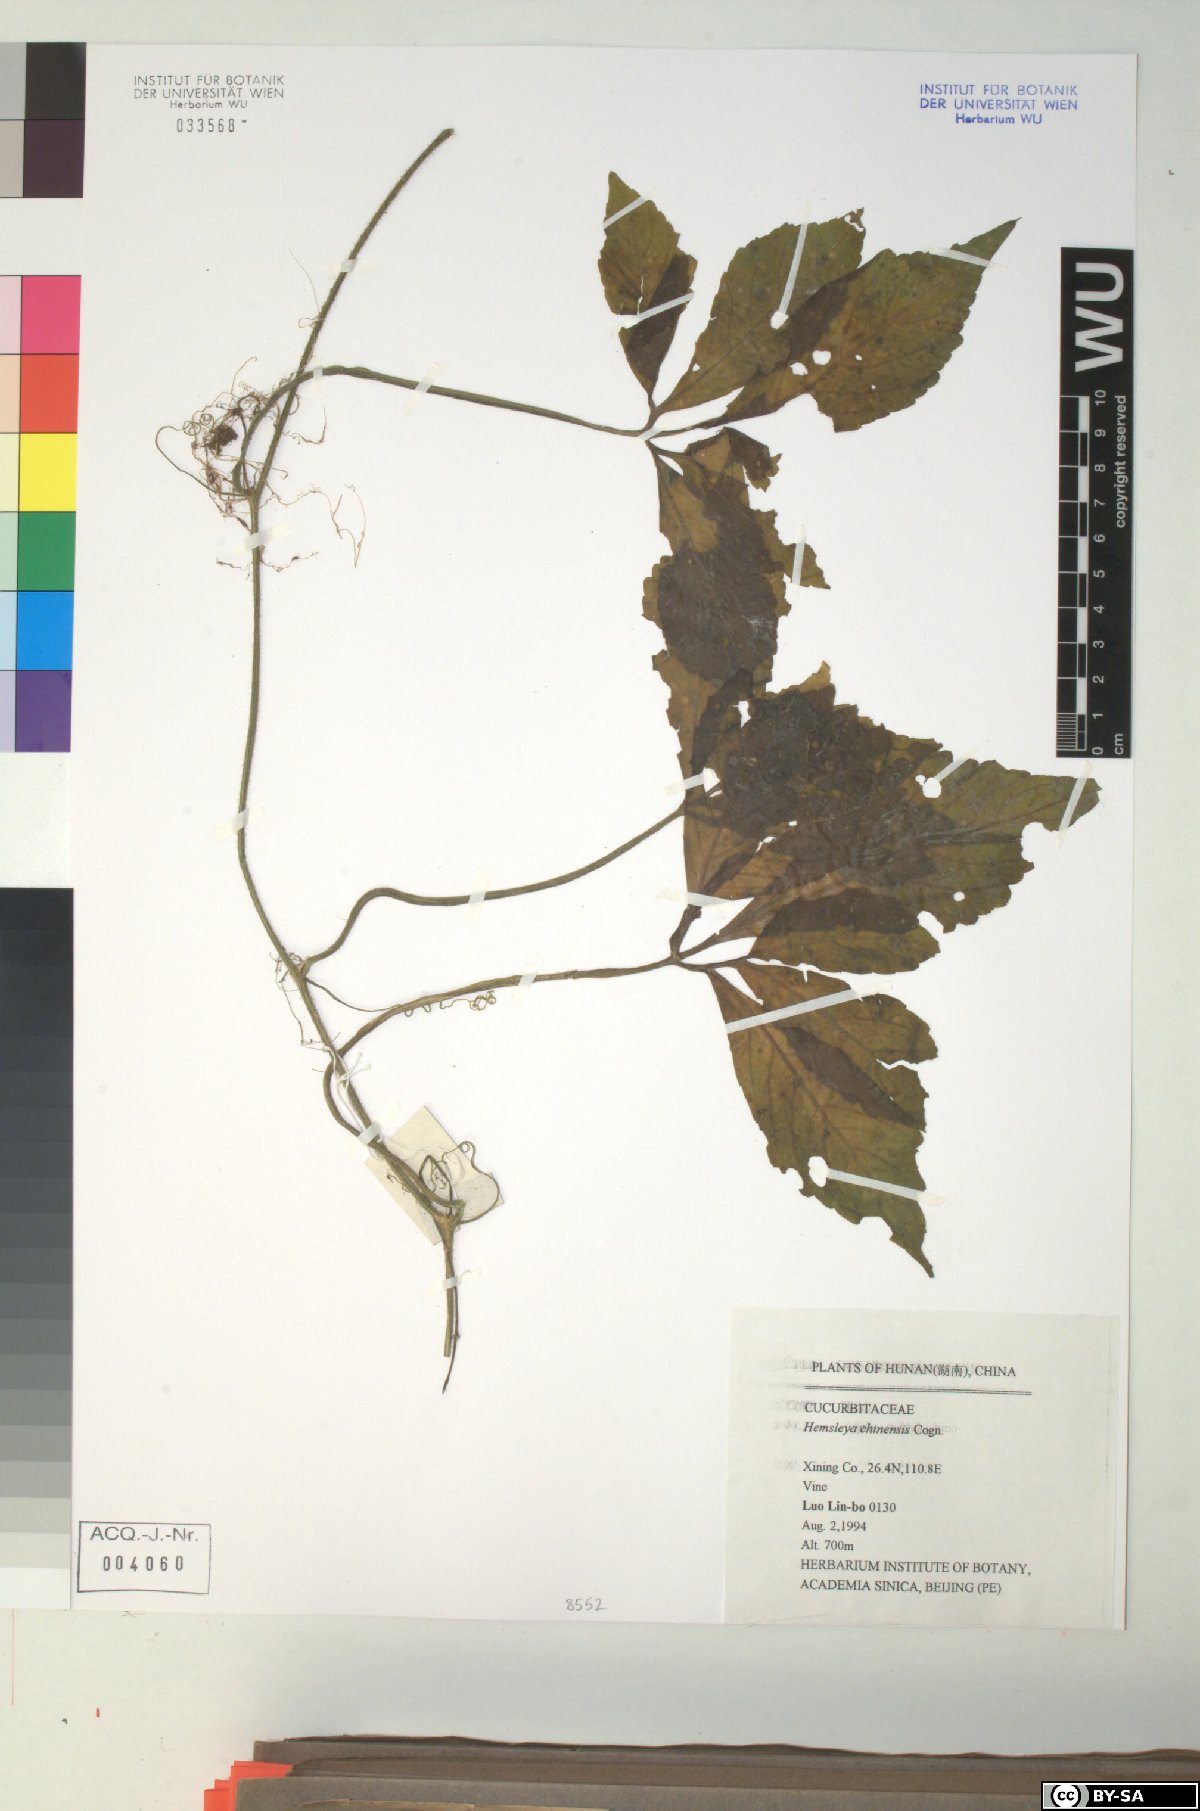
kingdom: Plantae
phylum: Tracheophyta
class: Magnoliopsida
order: Cucurbitales
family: Cucurbitaceae
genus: Hemsleya
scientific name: Hemsleya chinensis
